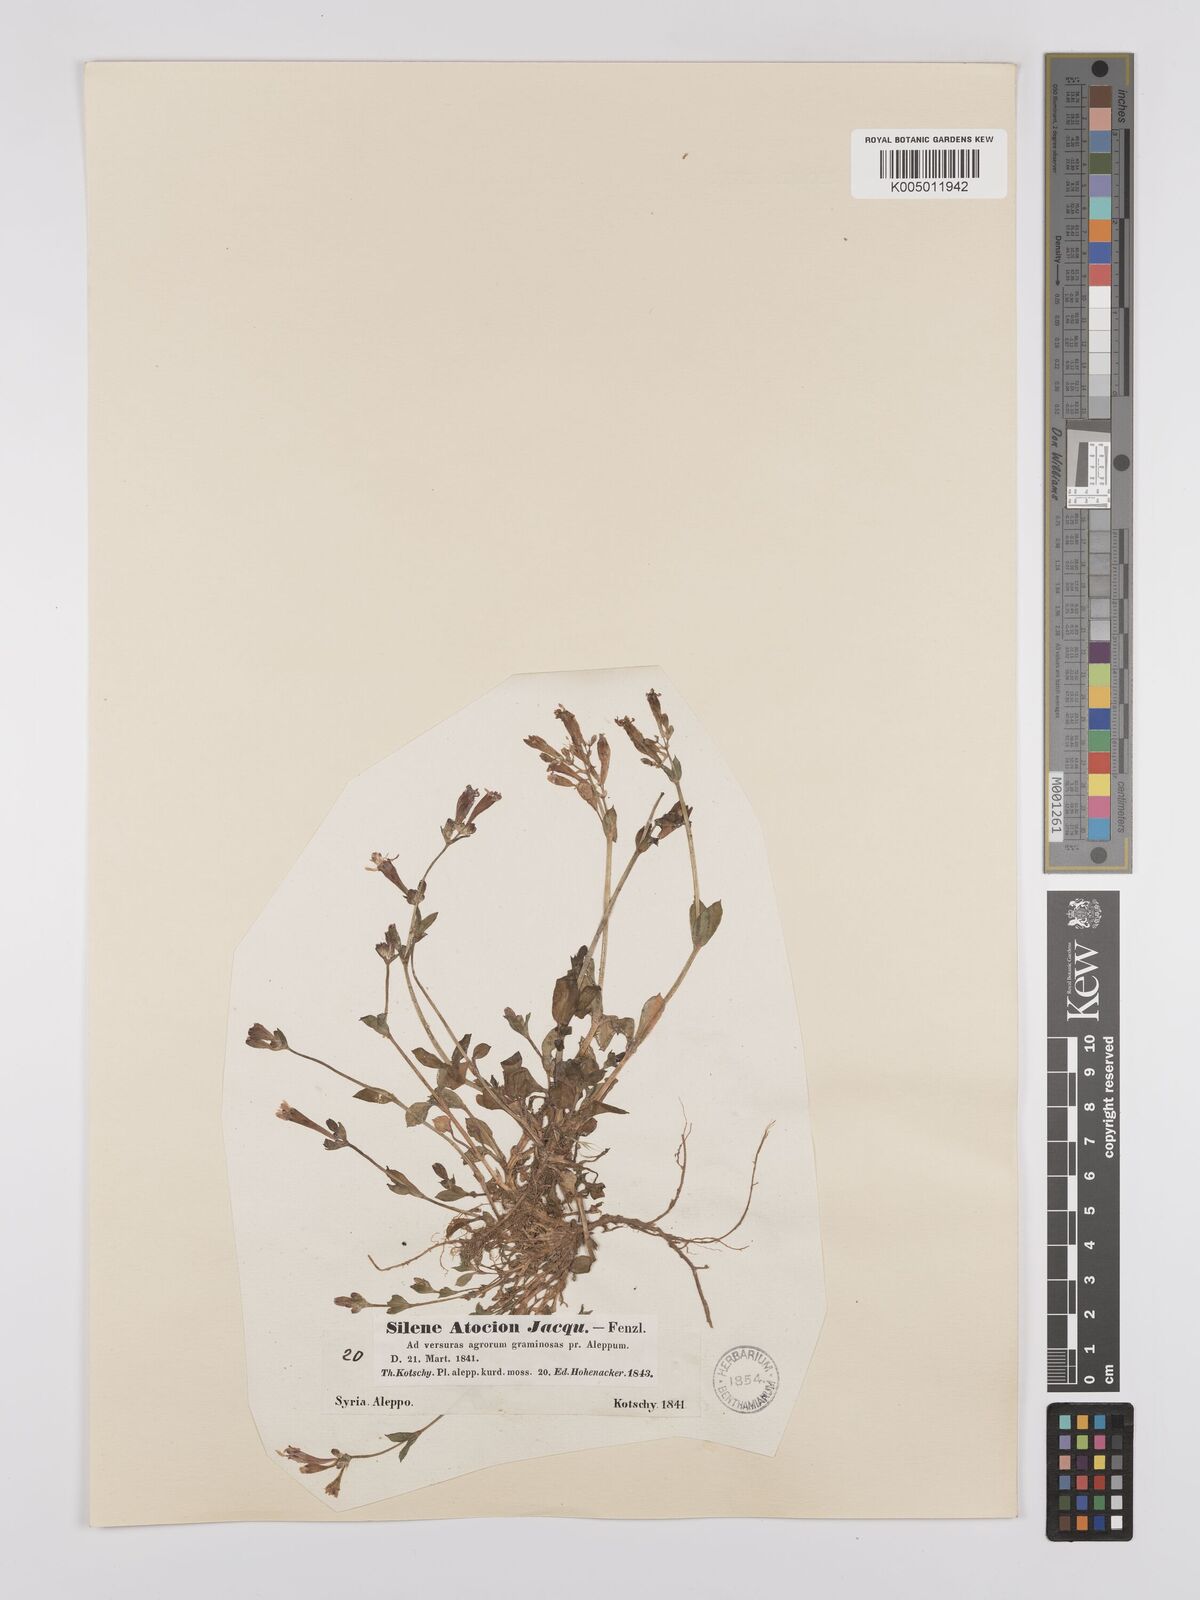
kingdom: Plantae
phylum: Tracheophyta
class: Magnoliopsida
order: Caryophyllales
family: Caryophyllaceae
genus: Silene
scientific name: Silene aegyptiaca
